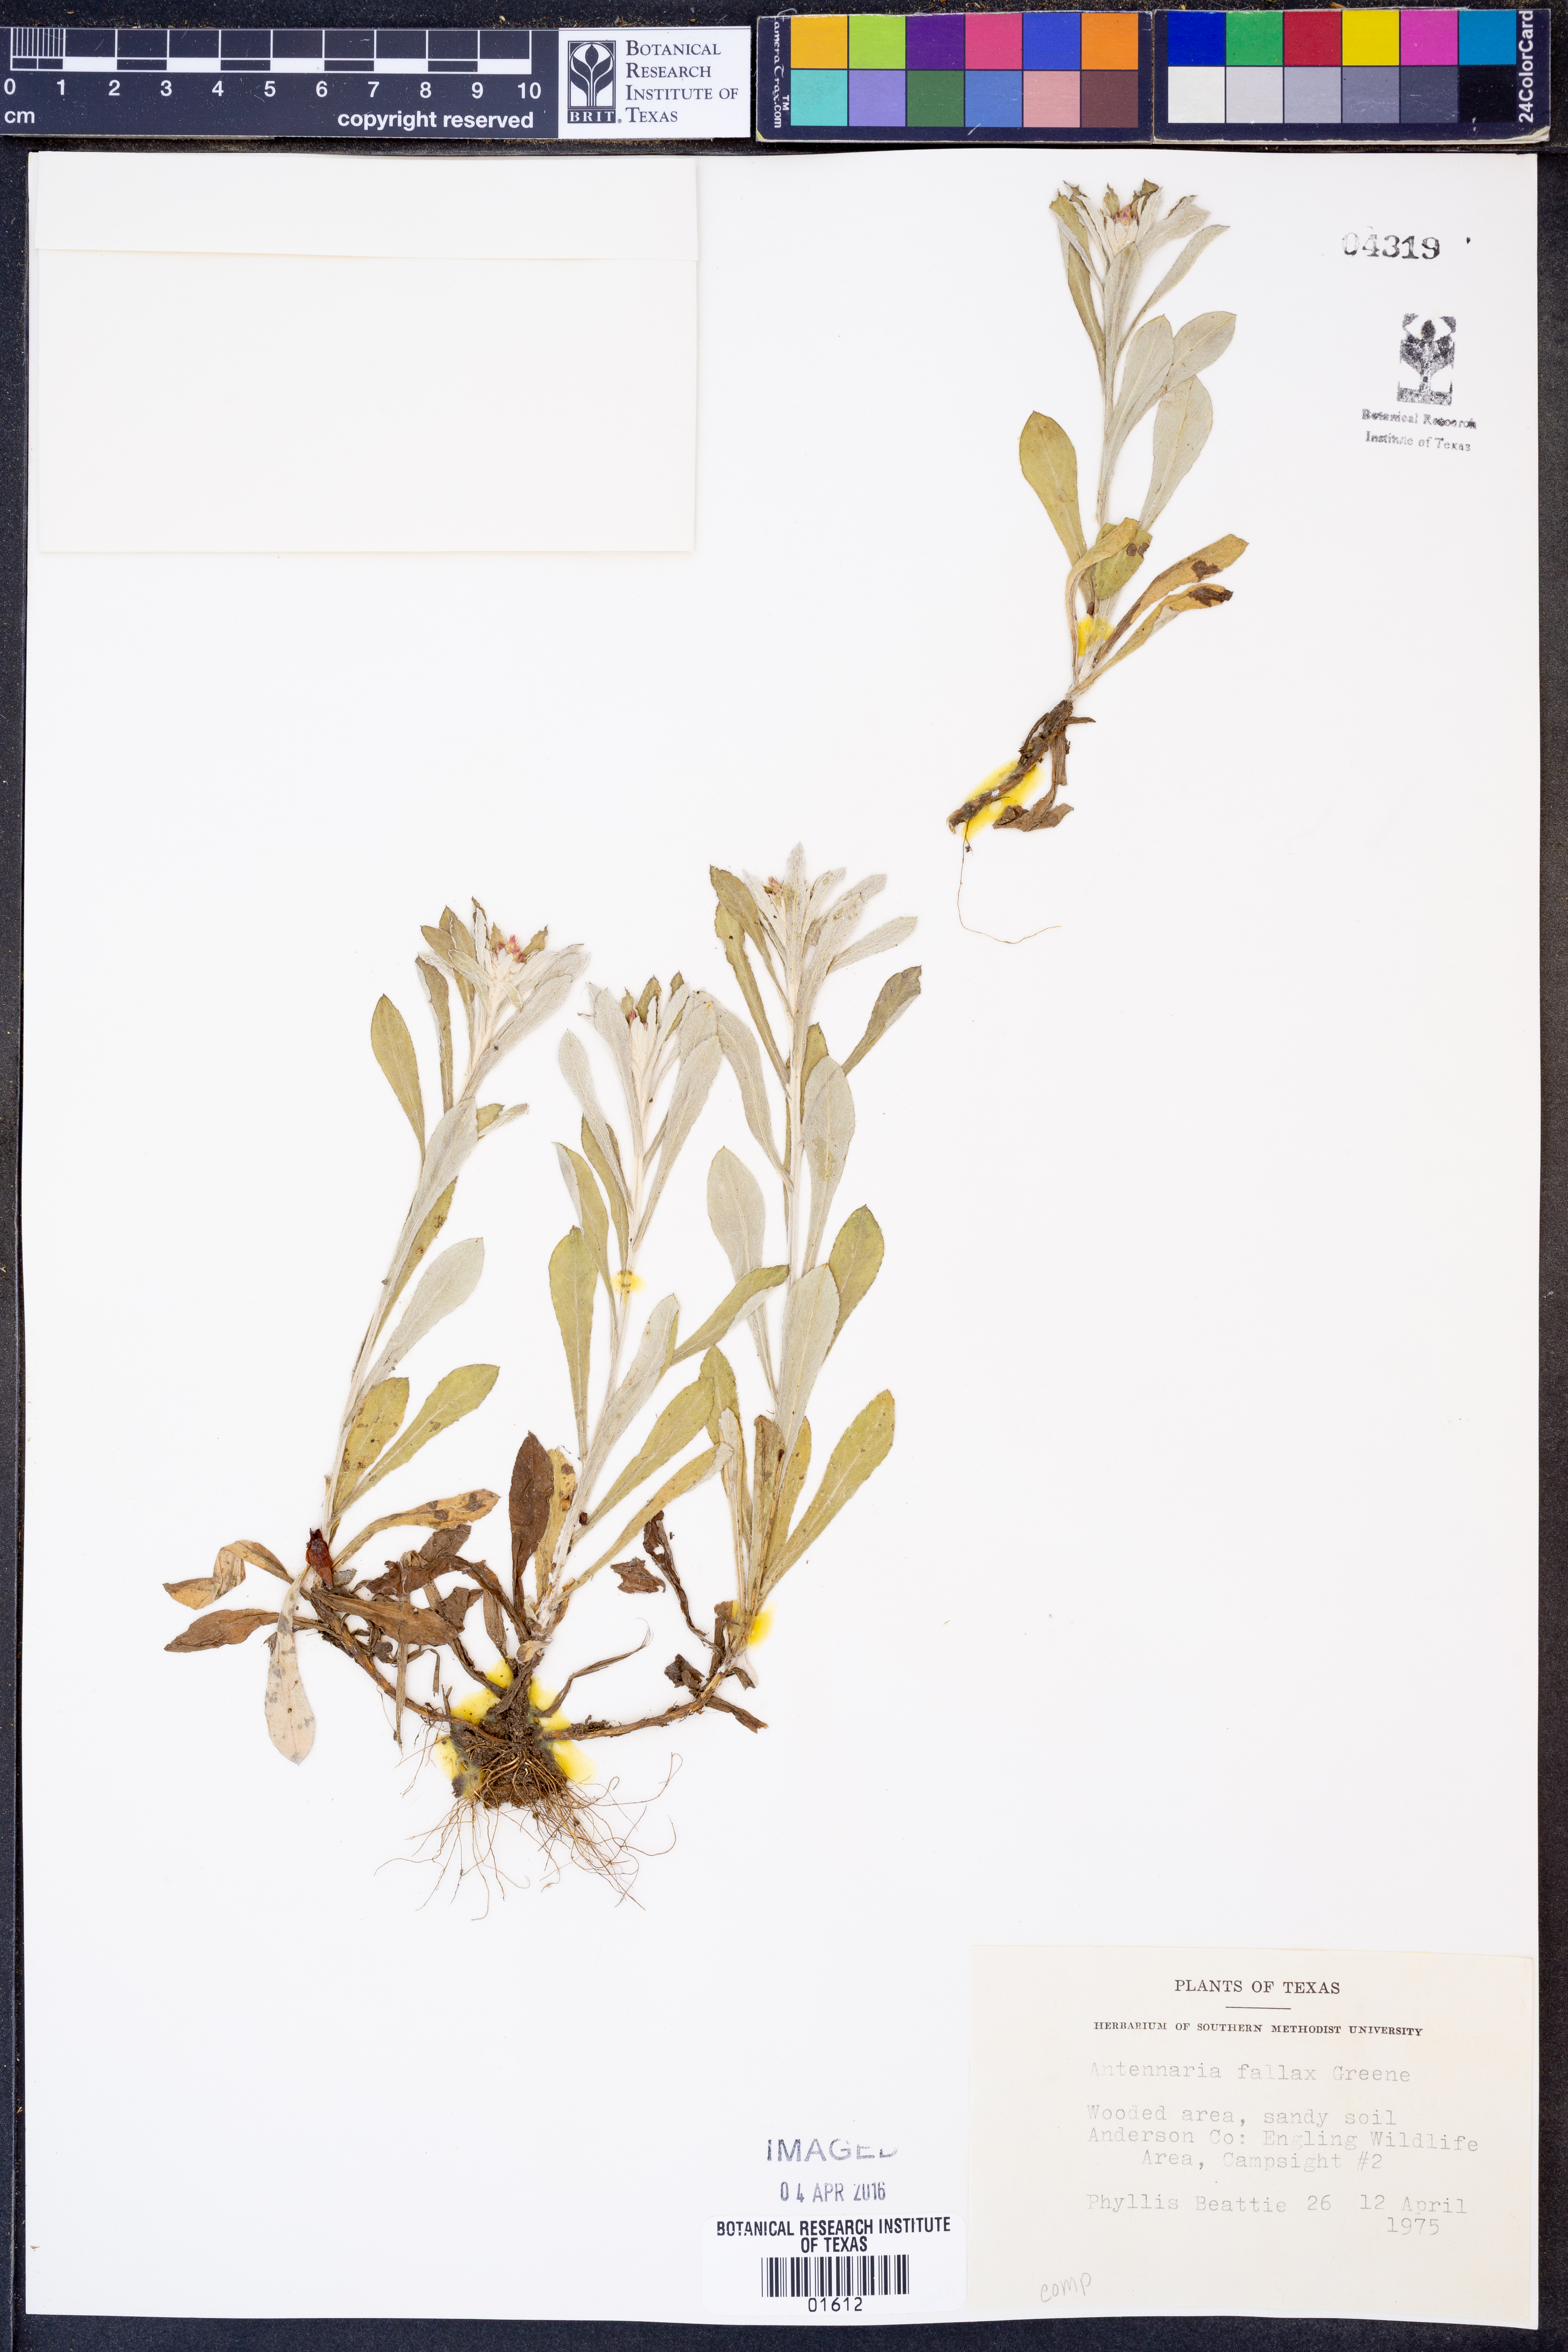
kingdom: Plantae
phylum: Tracheophyta
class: Magnoliopsida
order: Asterales
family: Asteraceae
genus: Antennaria
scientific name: Antennaria parlinii
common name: Parlin's pussytoes
